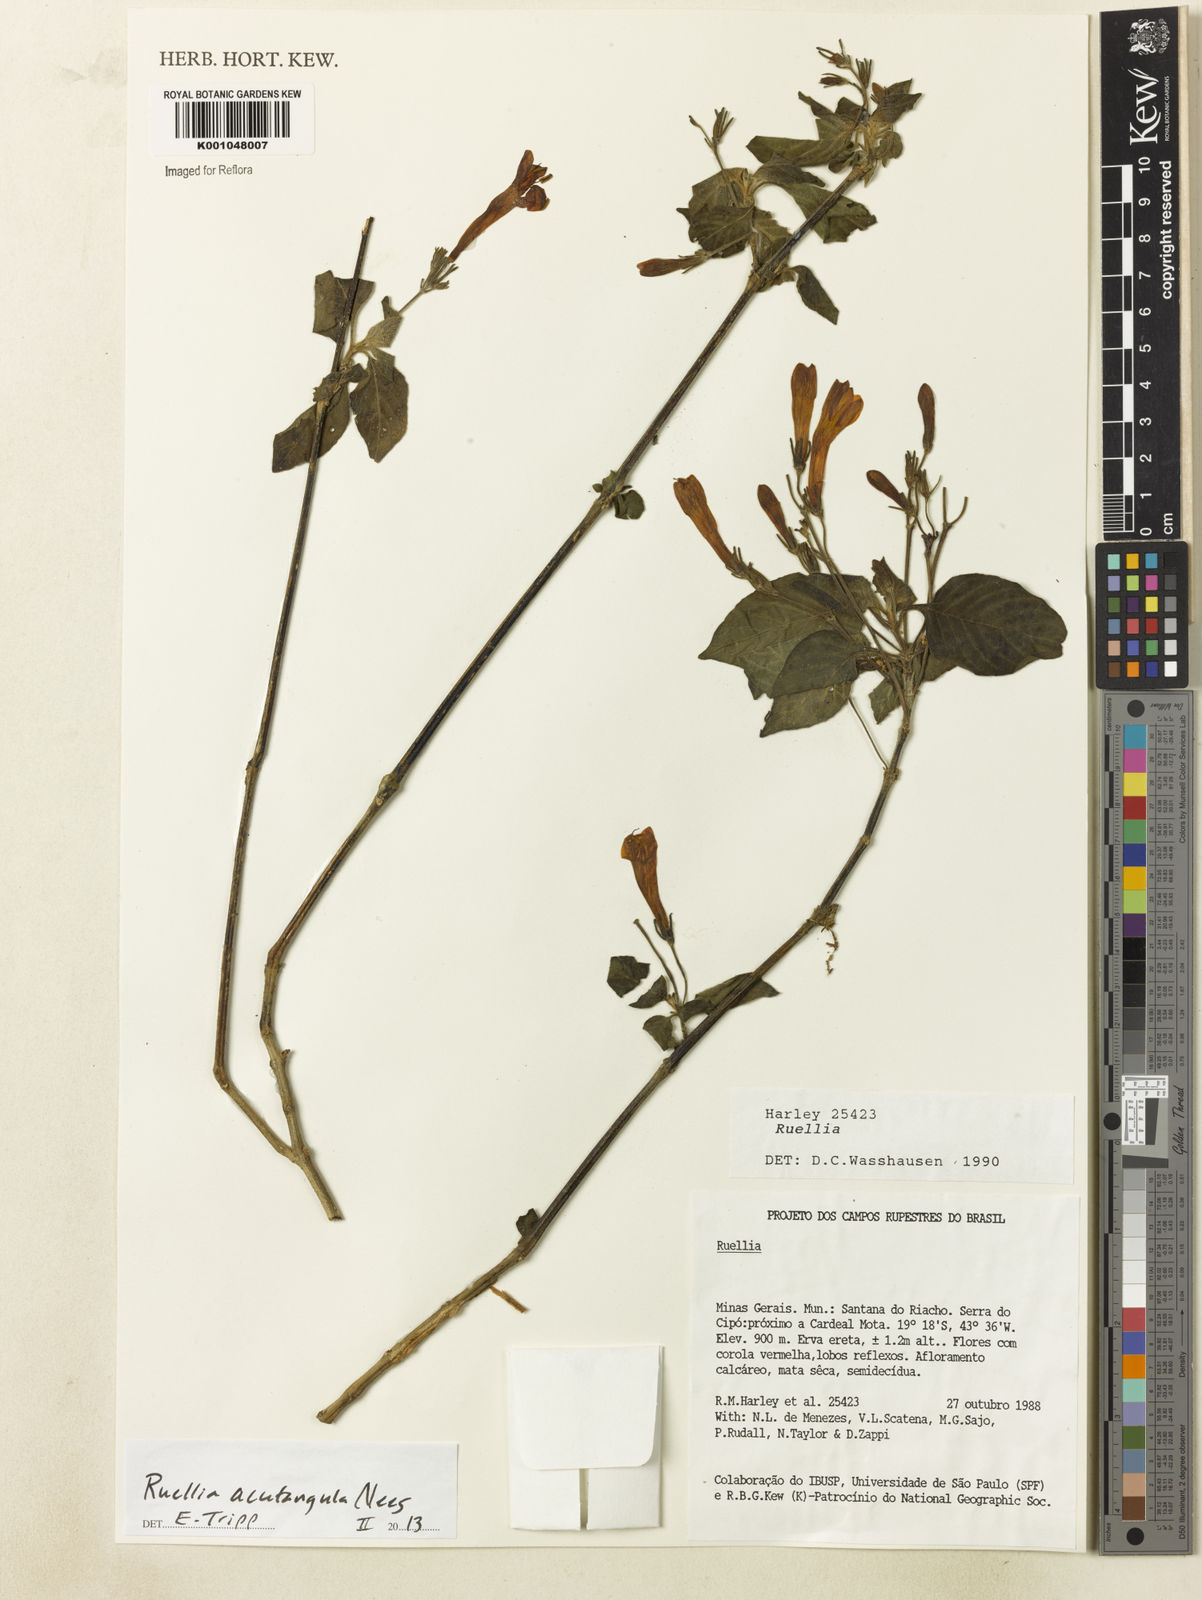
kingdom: Plantae
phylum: Tracheophyta
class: Magnoliopsida
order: Lamiales
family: Acanthaceae
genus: Ruellia
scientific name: Ruellia
